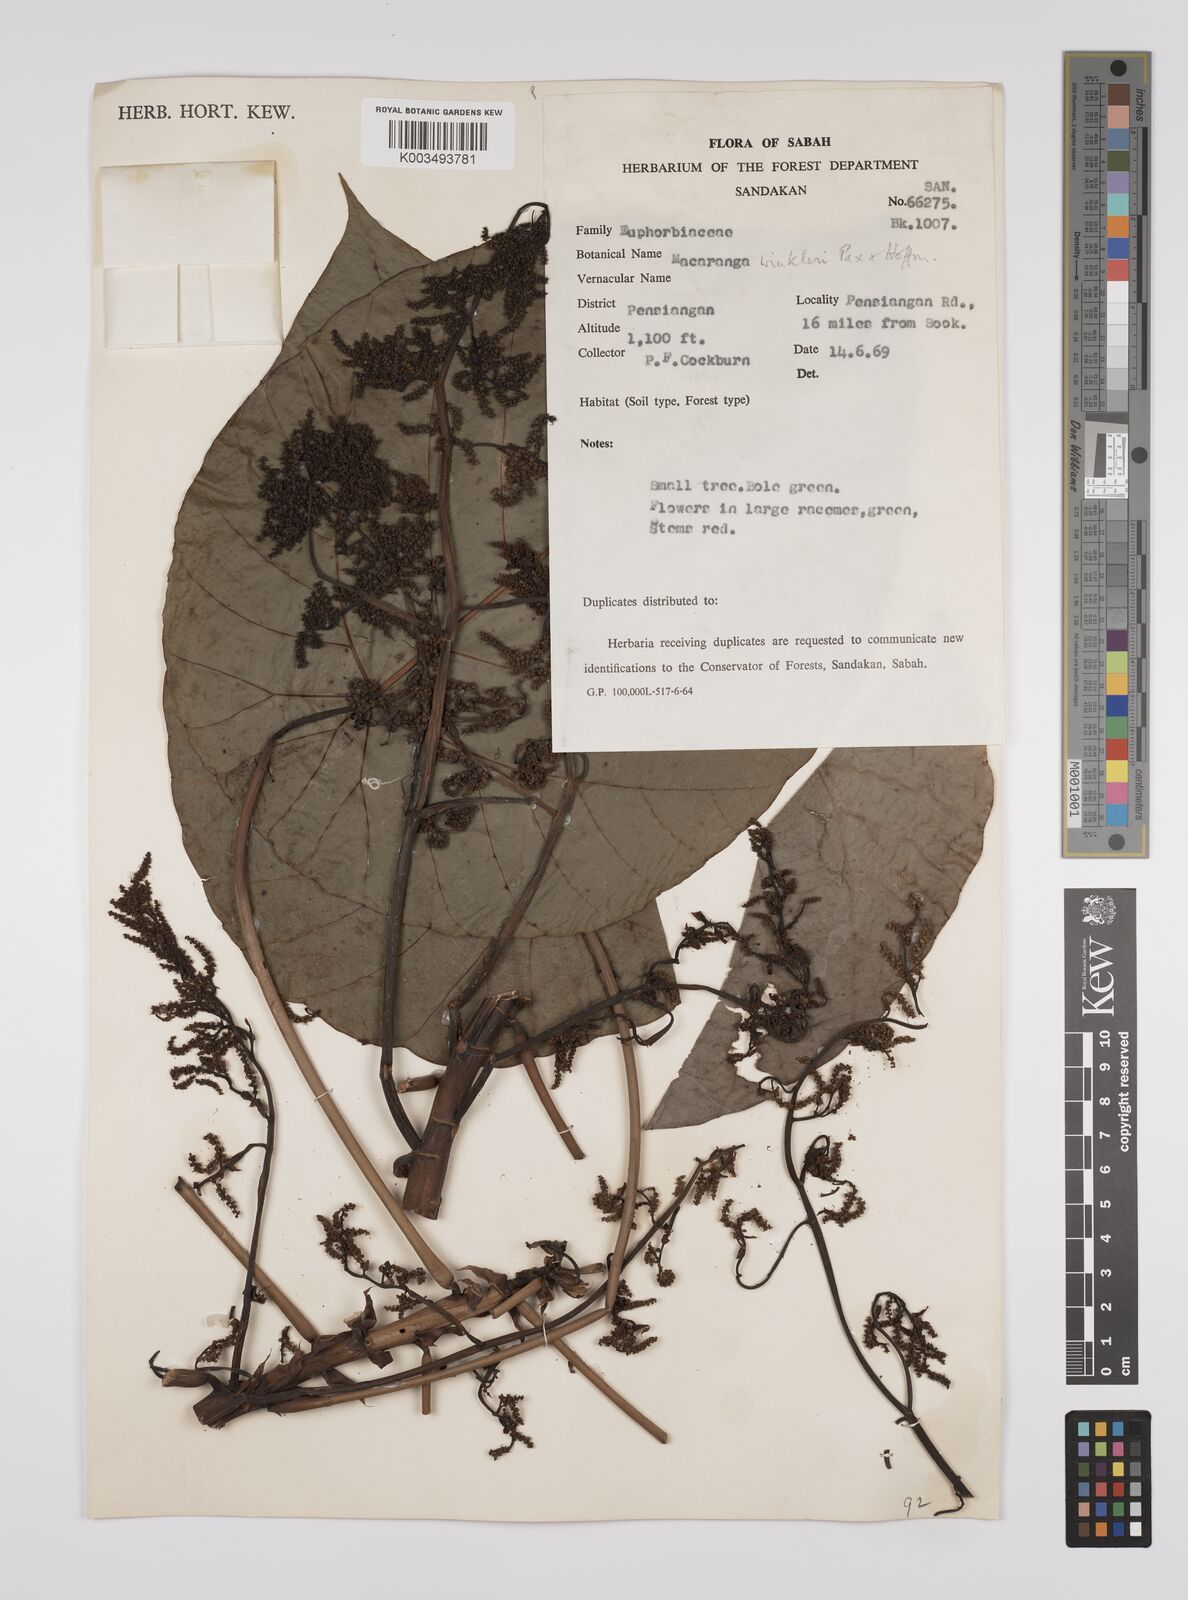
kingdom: Plantae
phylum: Tracheophyta
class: Magnoliopsida
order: Malpighiales
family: Euphorbiaceae
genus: Macaranga
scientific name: Macaranga winkleri
